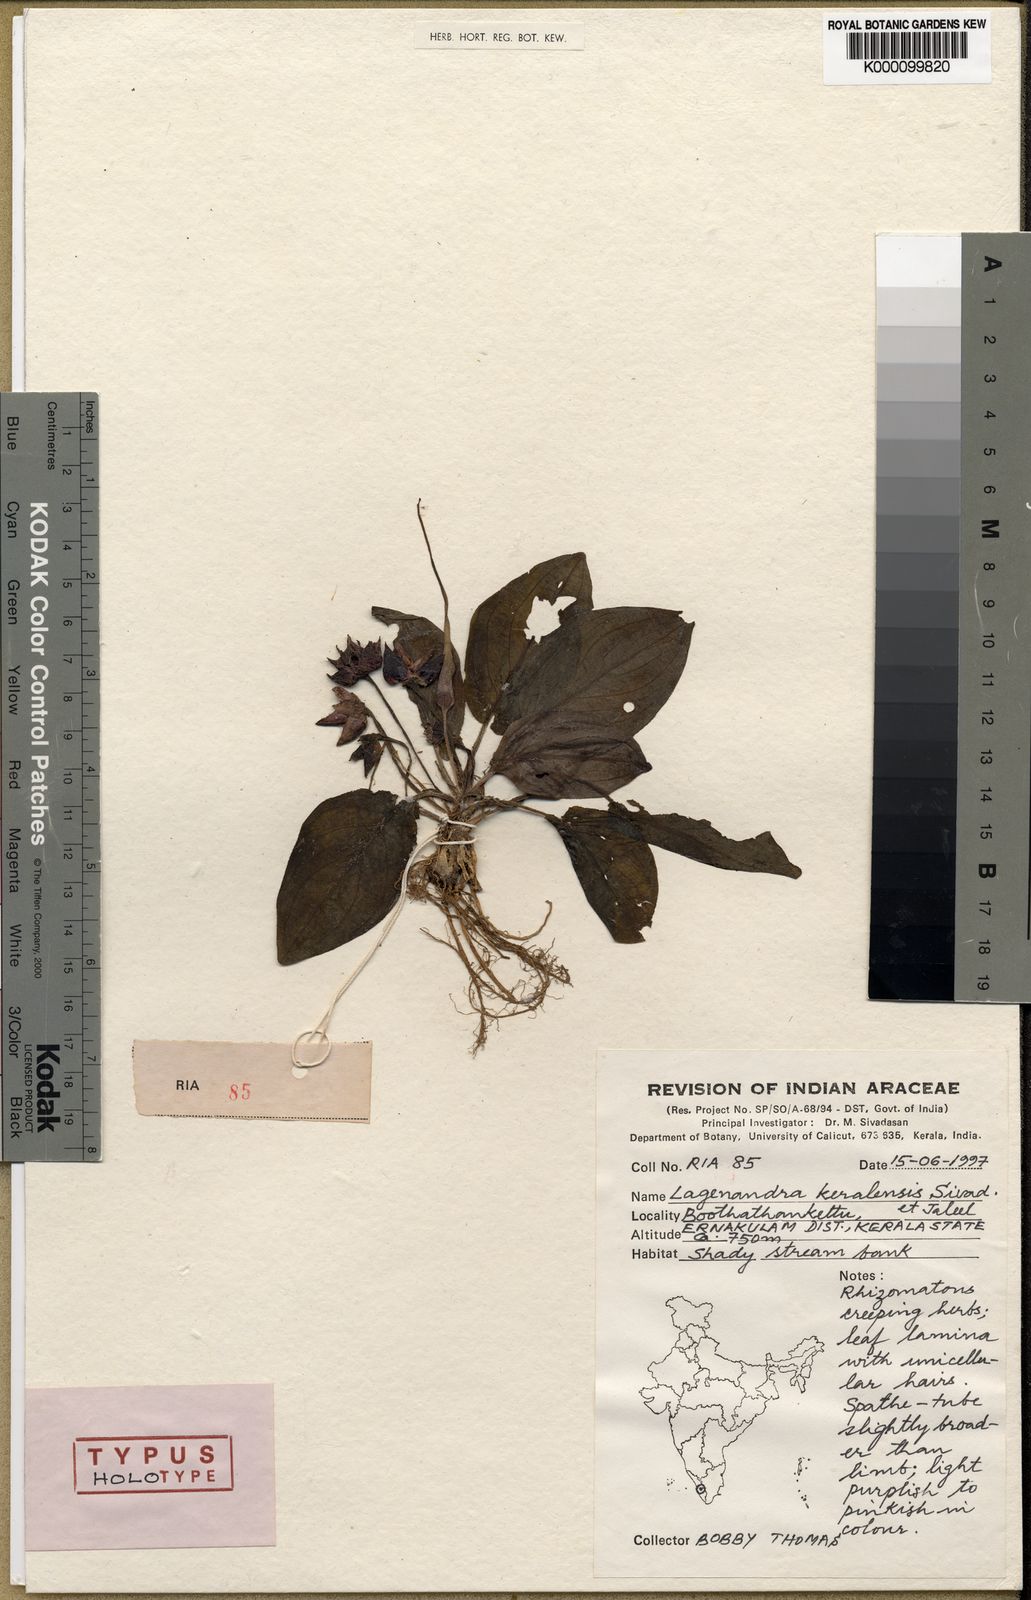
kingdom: Plantae
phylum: Tracheophyta
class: Liliopsida
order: Alismatales
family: Araceae
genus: Lagenandra
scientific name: Lagenandra keralensis
